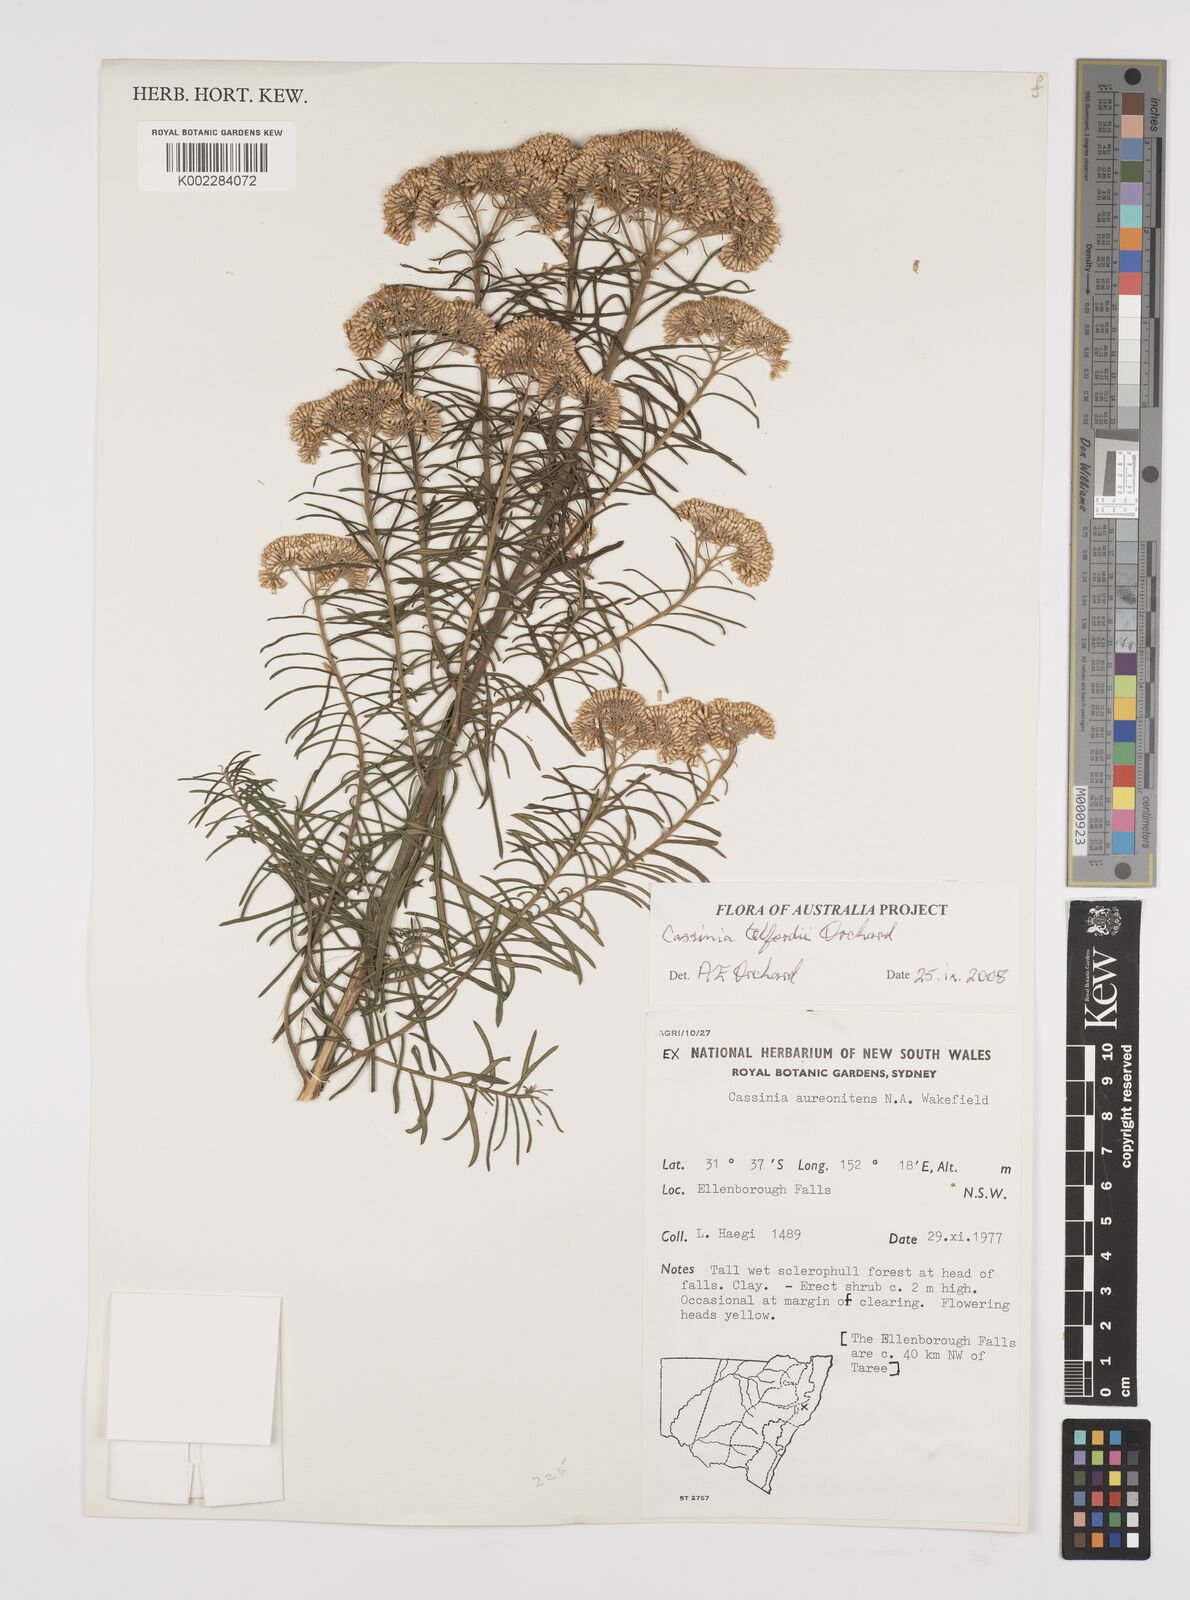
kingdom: Plantae
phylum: Tracheophyta
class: Magnoliopsida
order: Asterales
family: Asteraceae
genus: Cassinia
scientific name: Cassinia telfordii
